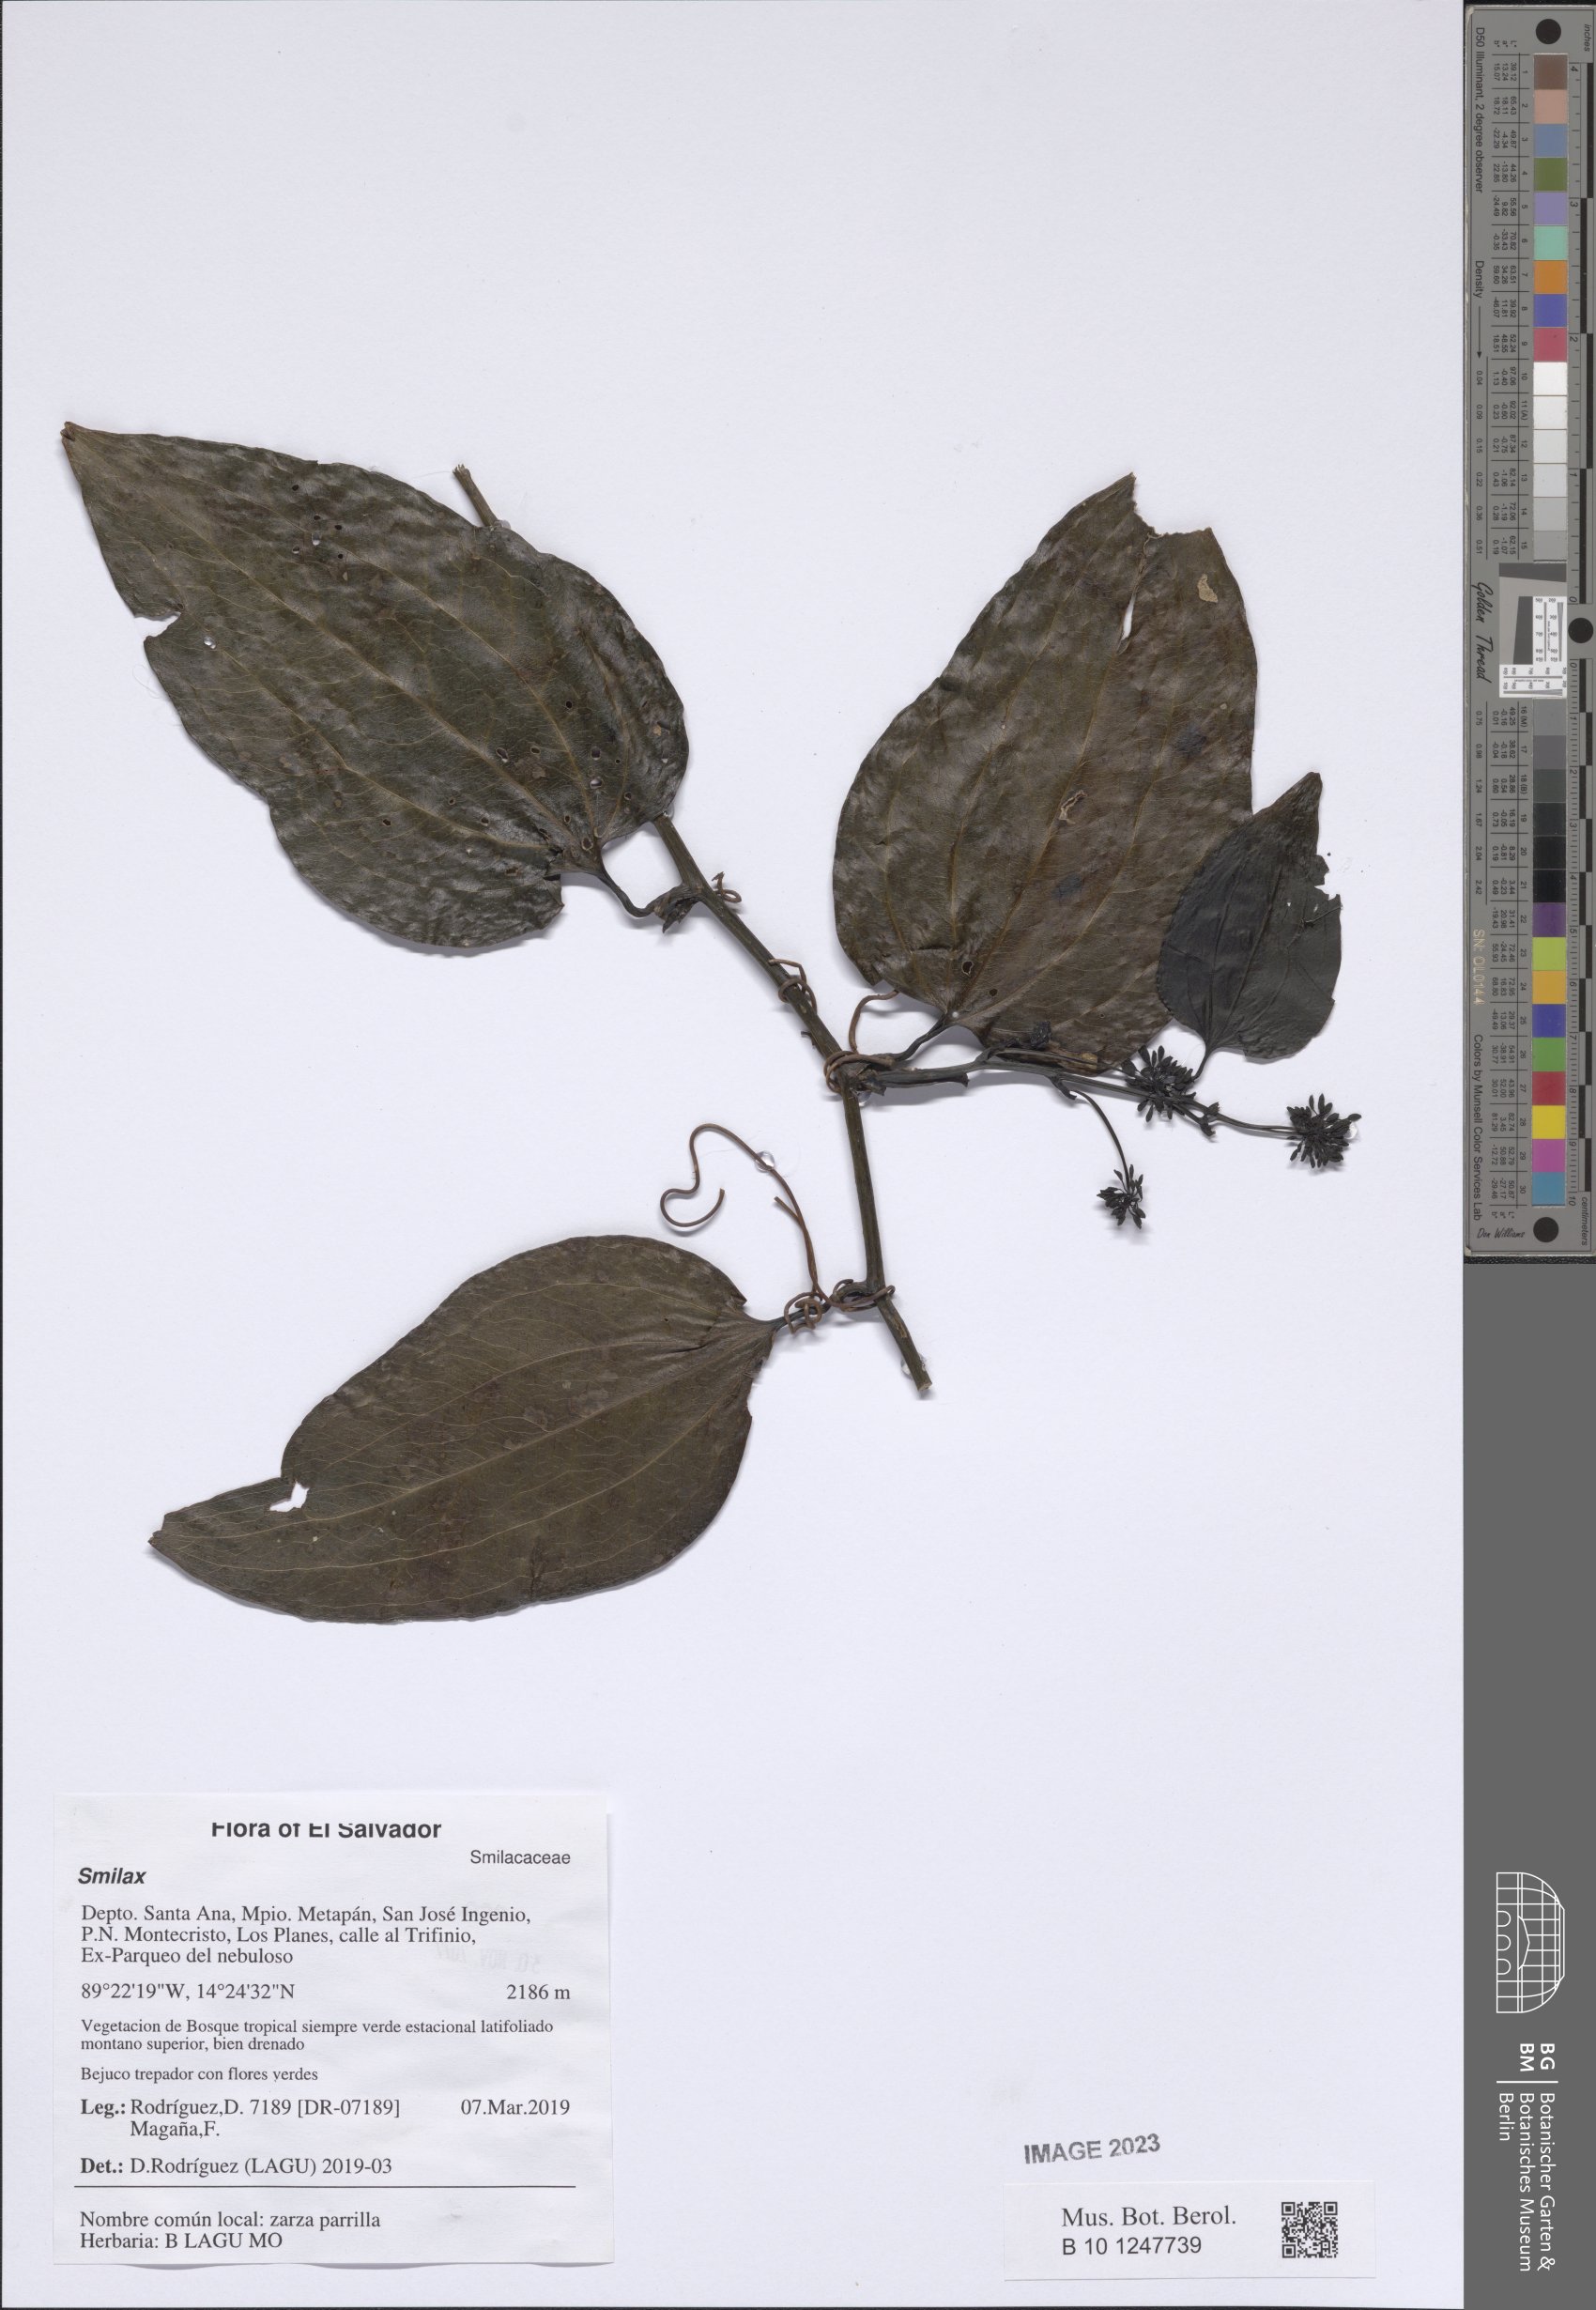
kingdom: Plantae
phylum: Tracheophyta
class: Liliopsida
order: Liliales
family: Smilacaceae
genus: Smilax
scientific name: Smilax
